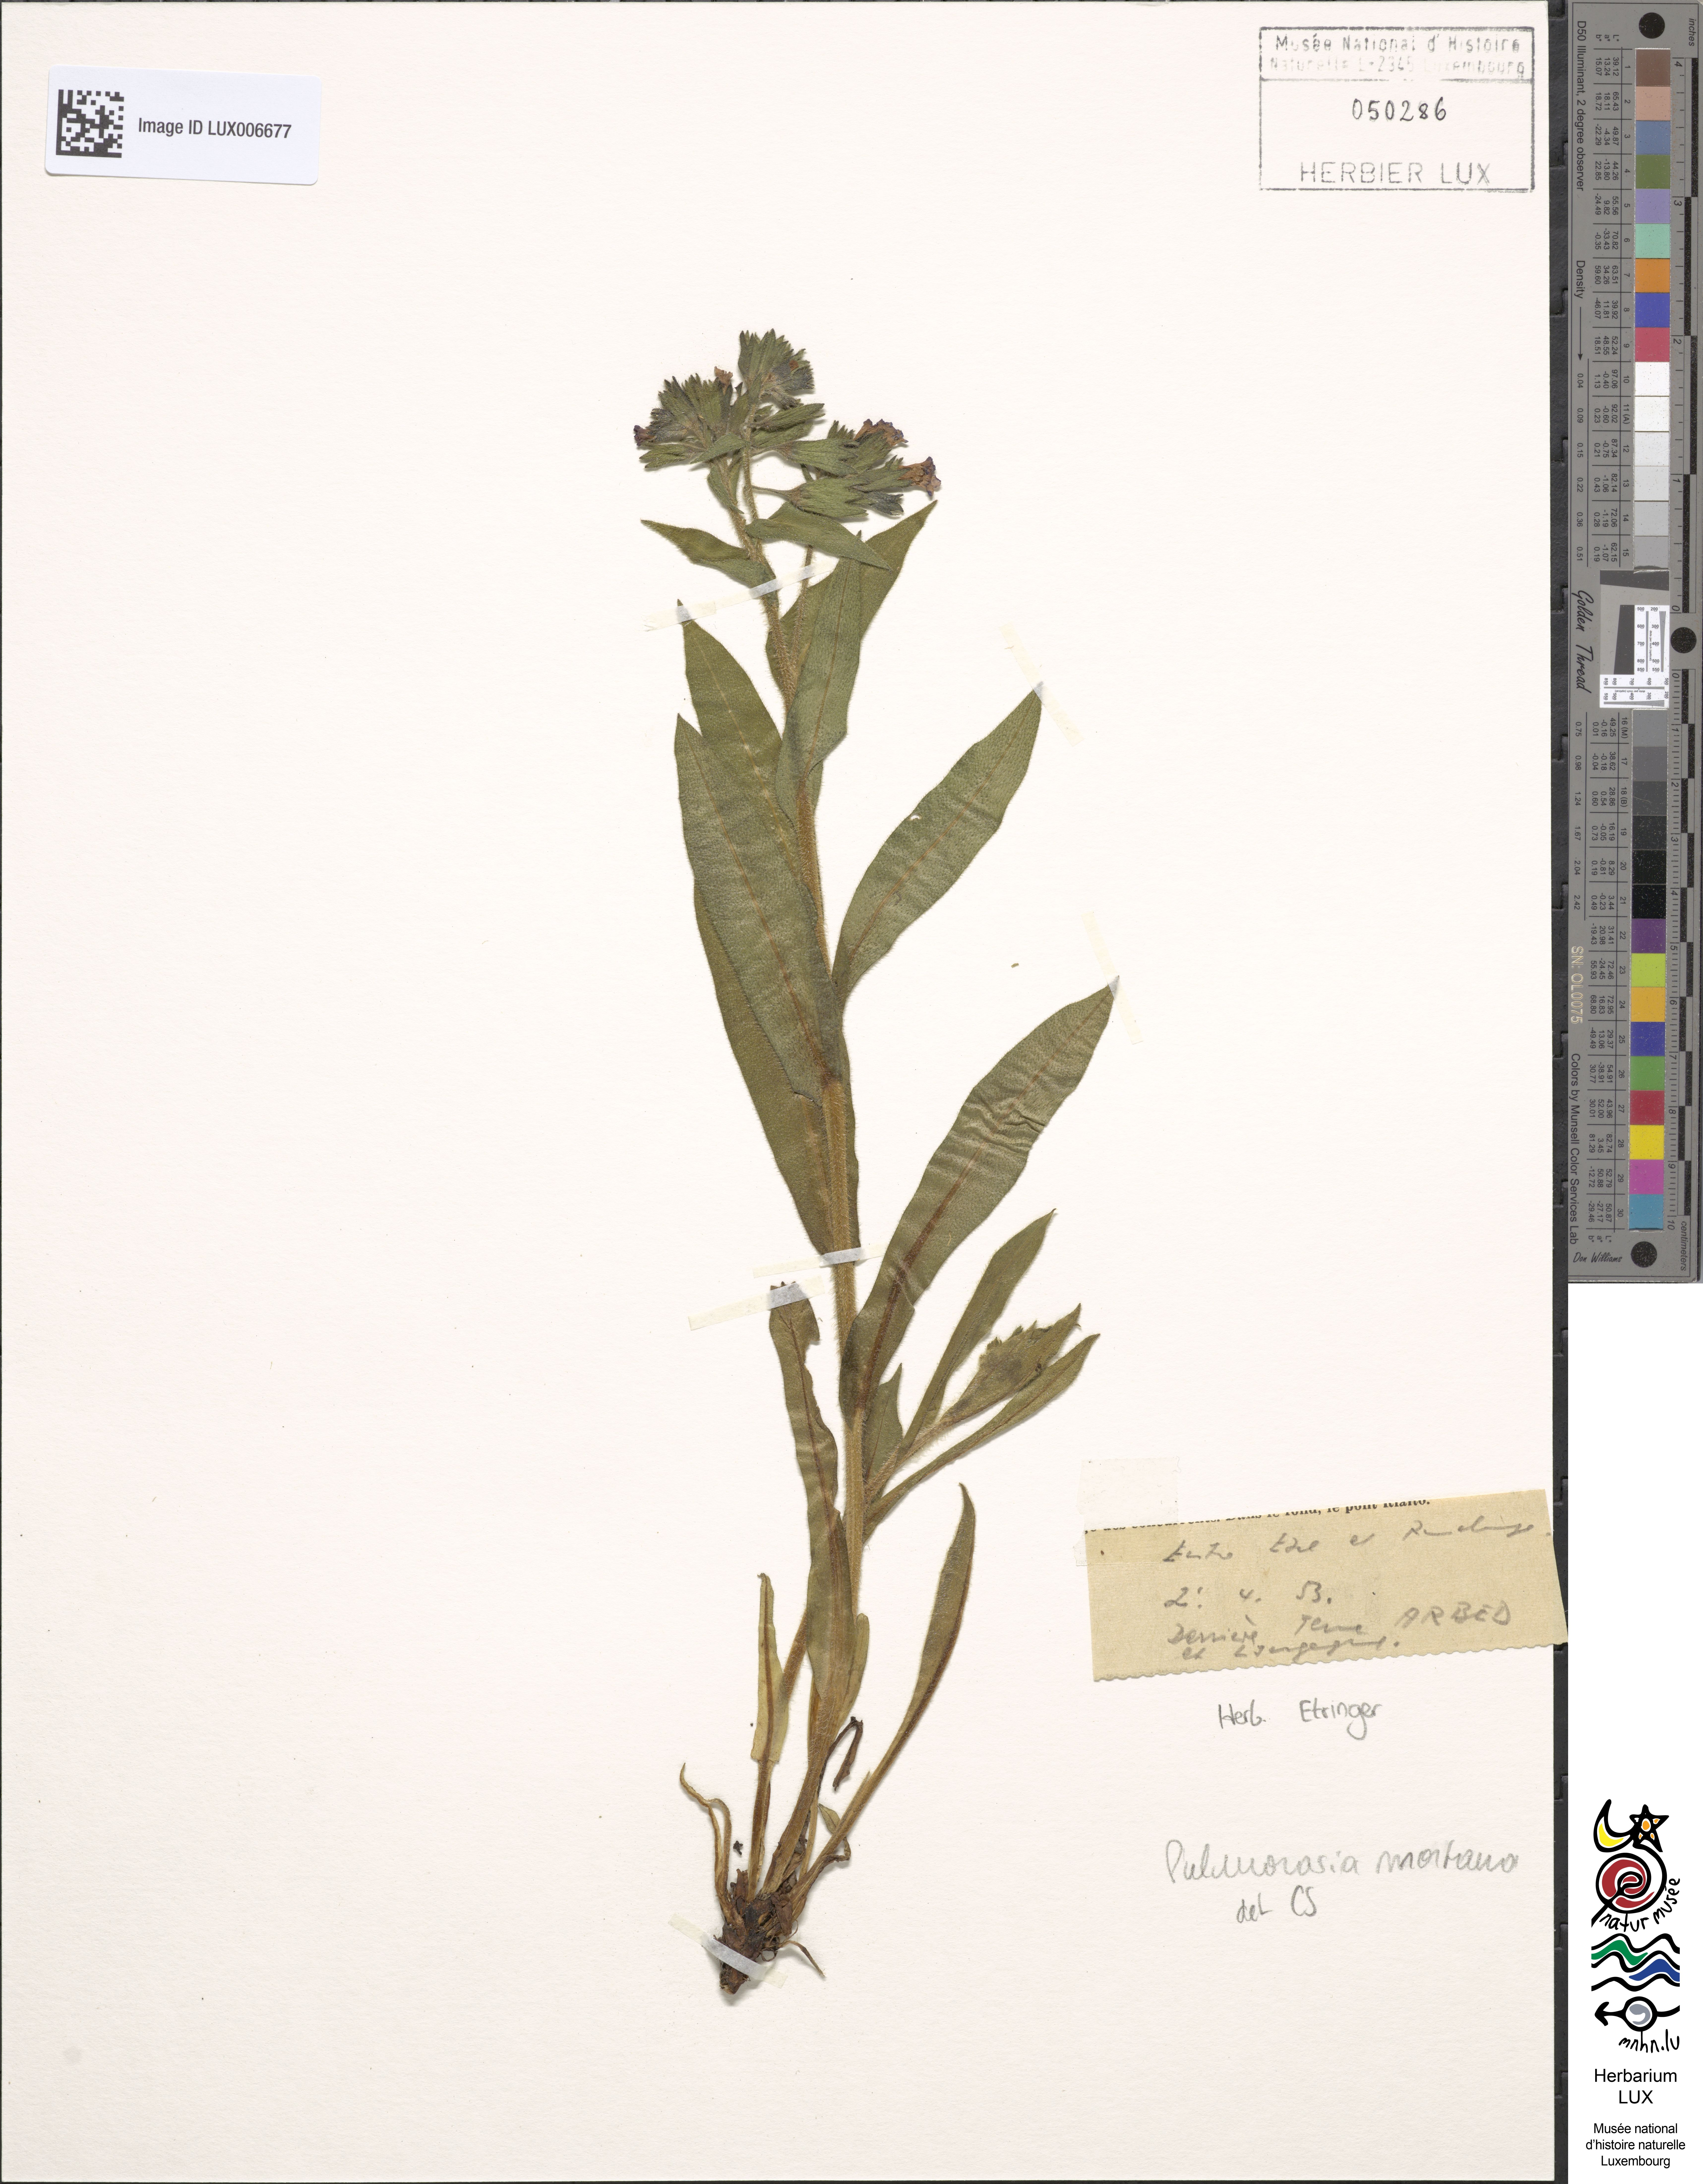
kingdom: Plantae
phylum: Tracheophyta
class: Magnoliopsida
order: Boraginales
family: Boraginaceae
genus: Pulmonaria
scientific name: Pulmonaria montana
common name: Mountain lungwort
